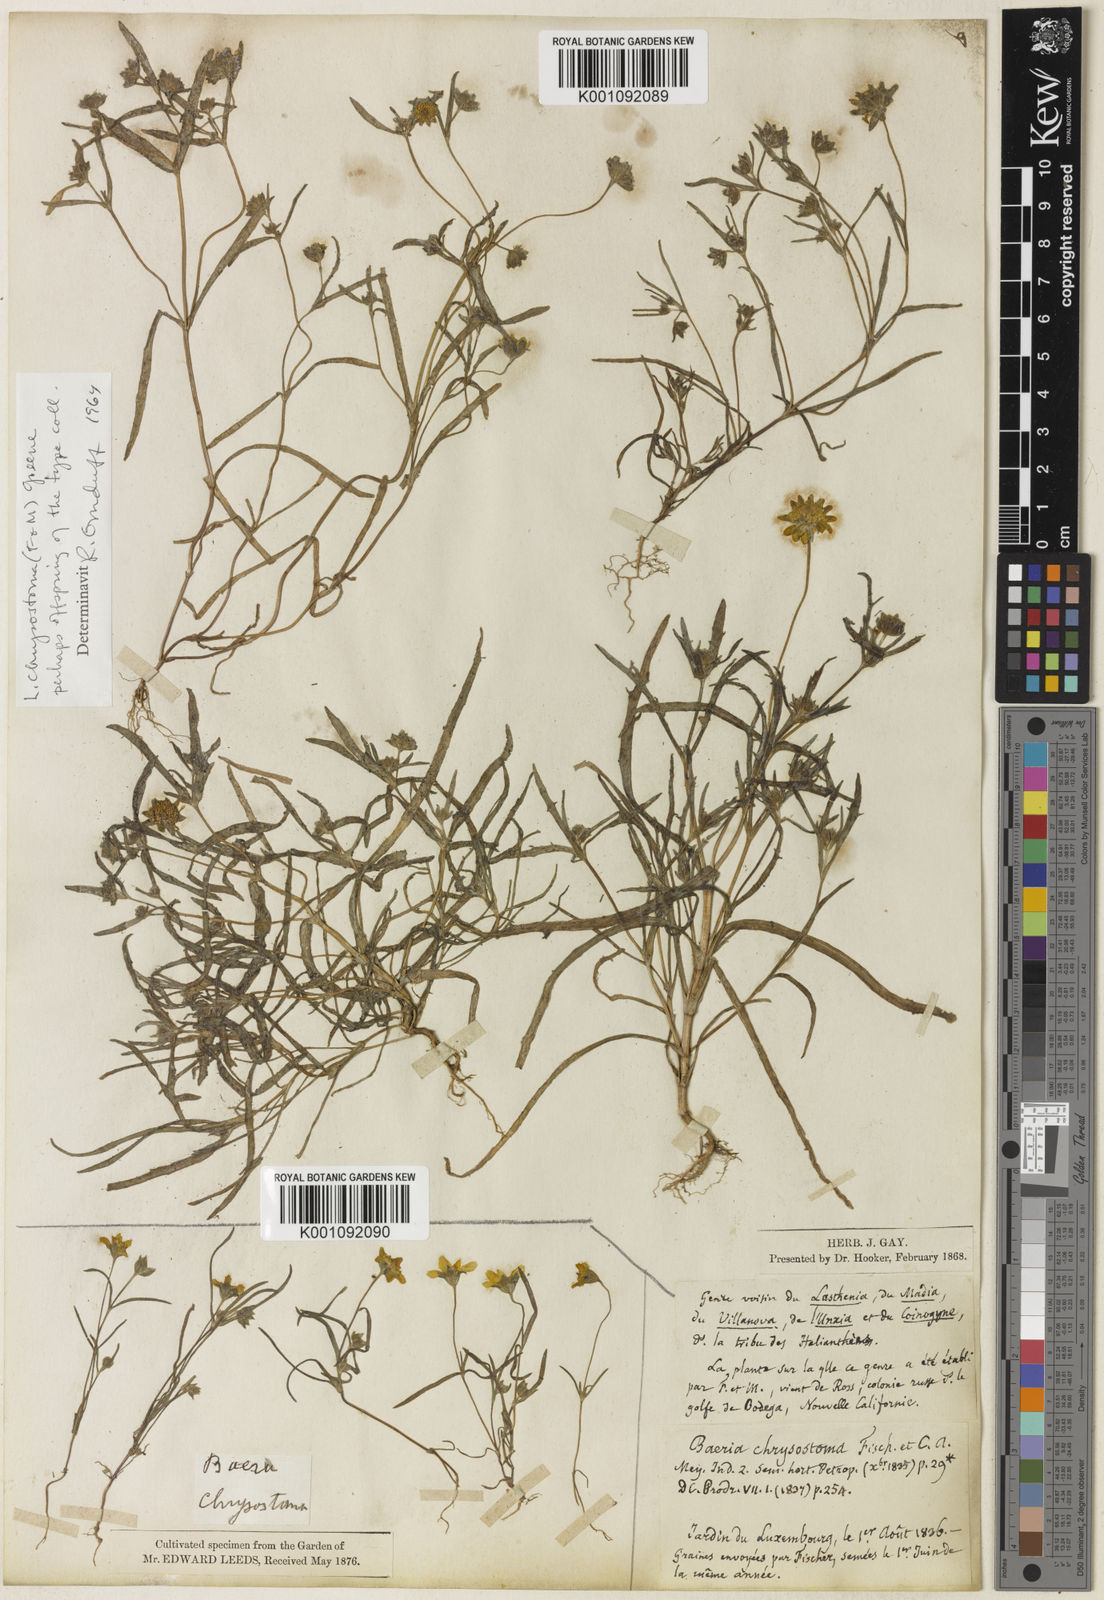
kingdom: Plantae
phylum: Tracheophyta
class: Magnoliopsida
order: Asterales
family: Asteraceae
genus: Lasthenia
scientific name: Lasthenia californica
